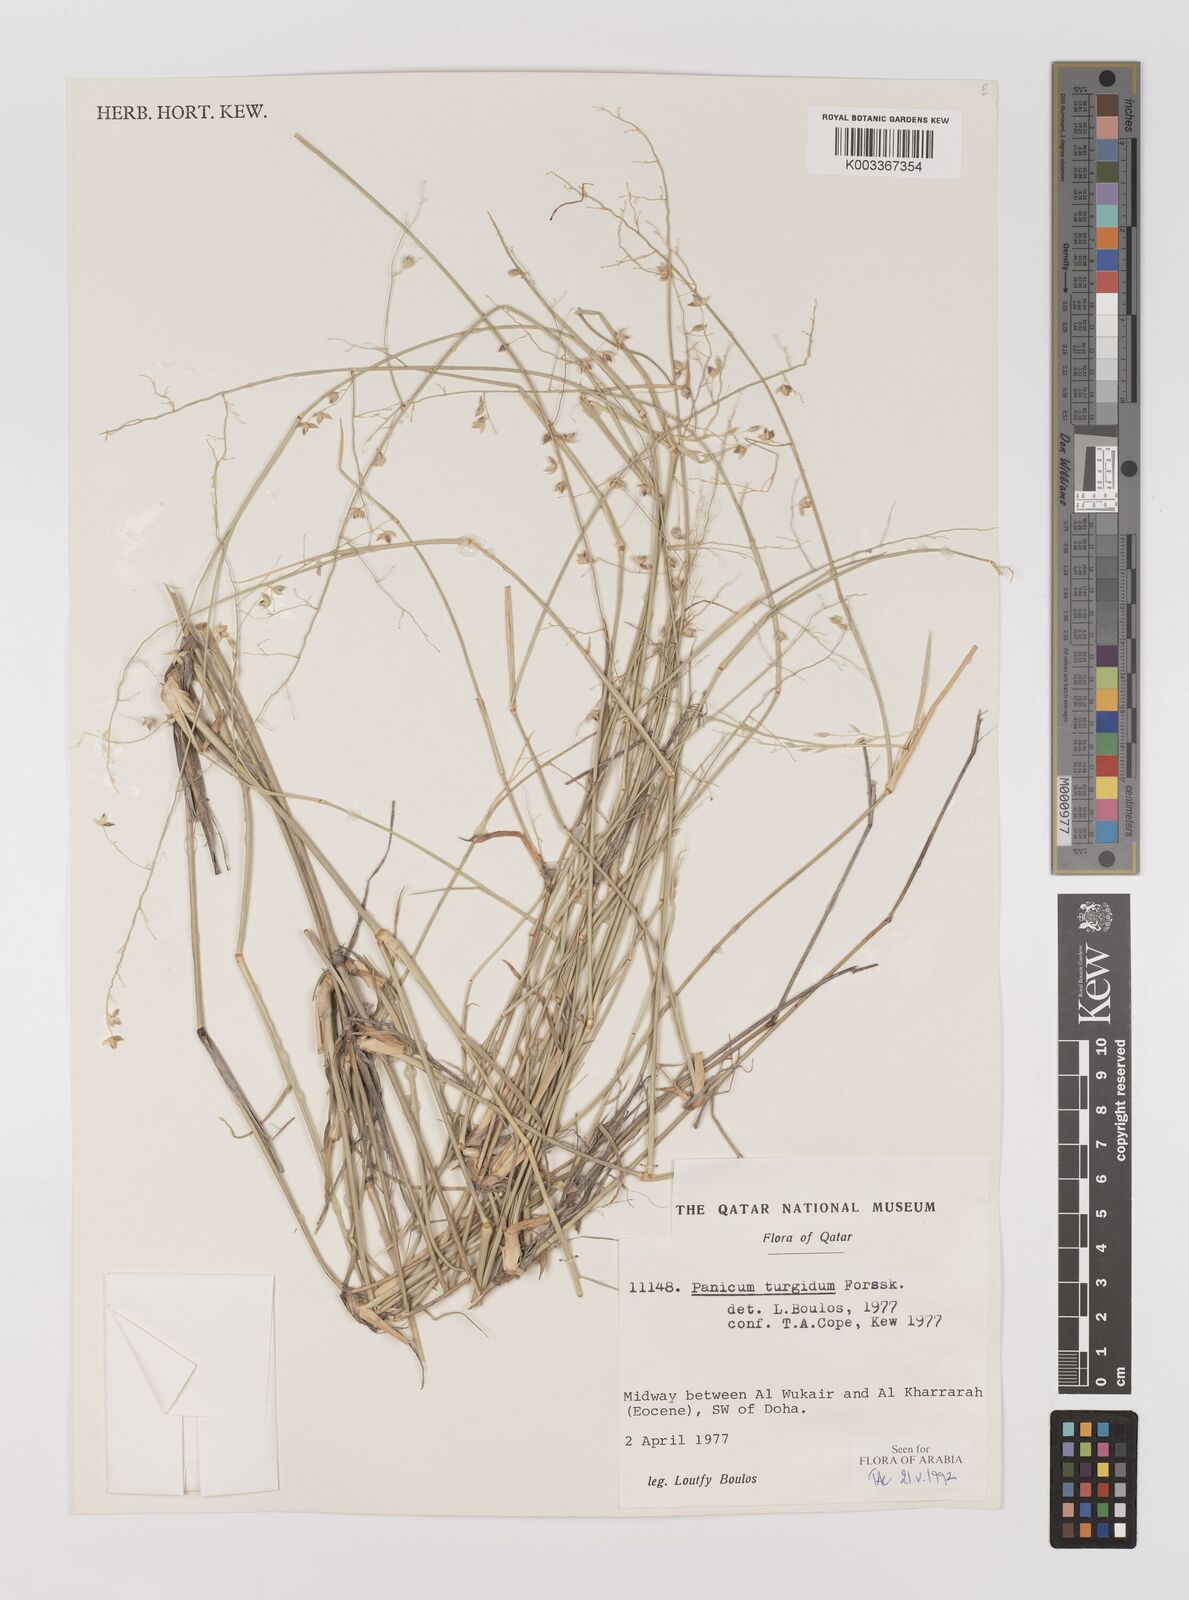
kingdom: Plantae
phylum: Tracheophyta
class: Liliopsida
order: Poales
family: Poaceae
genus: Panicum
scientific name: Panicum turgidum
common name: Desert grass
